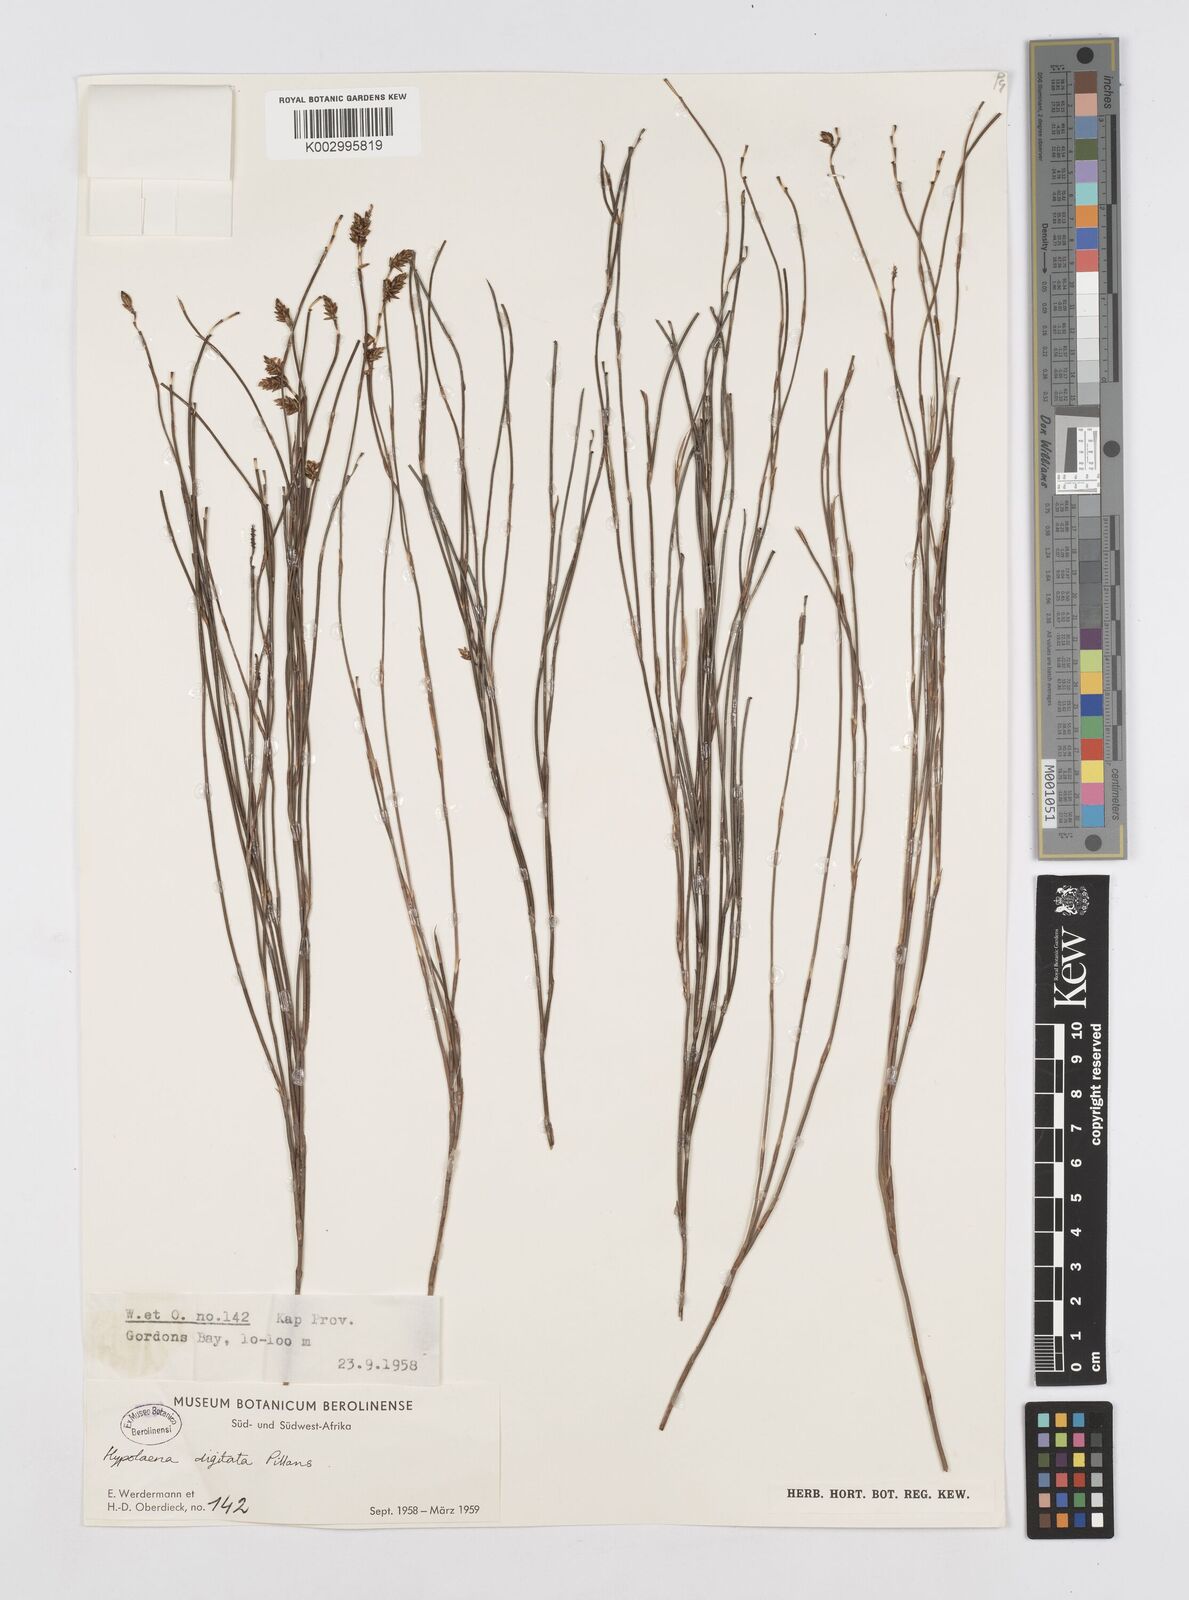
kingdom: Plantae
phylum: Tracheophyta
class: Liliopsida
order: Poales
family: Restionaceae
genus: Mastersiella
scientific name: Mastersiella digitata
